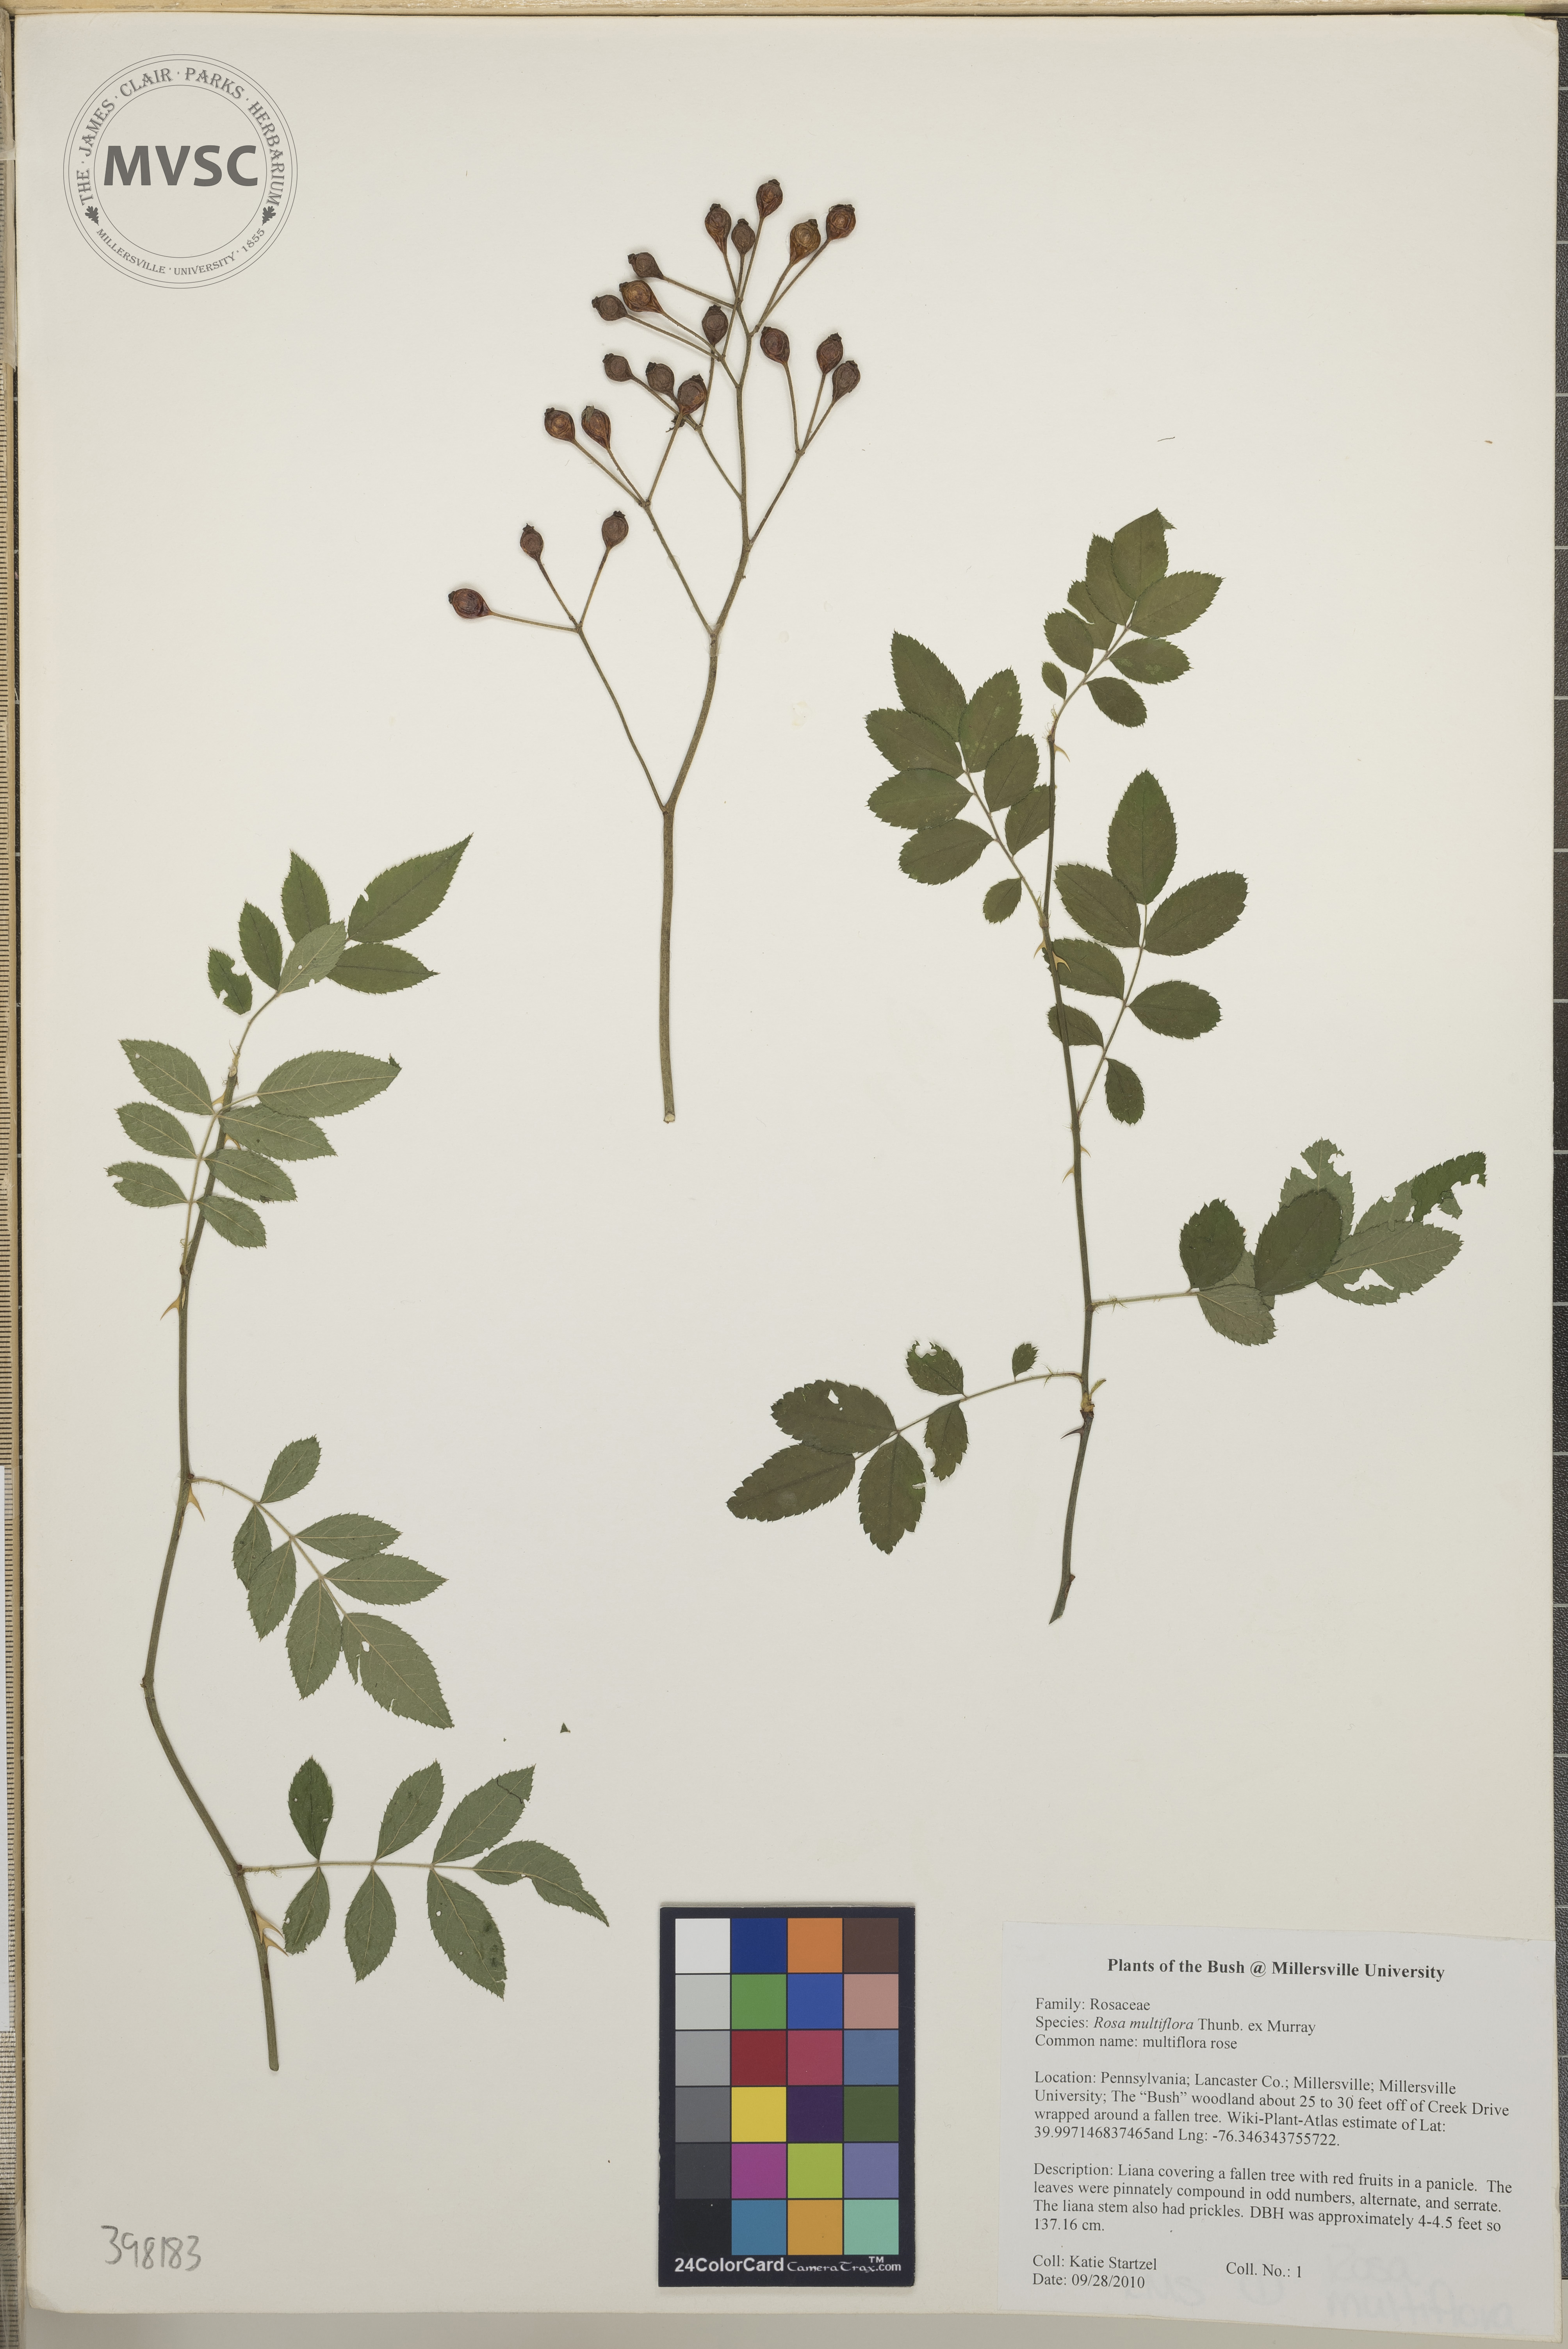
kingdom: Plantae
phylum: Tracheophyta
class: Magnoliopsida
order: Rosales
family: Rosaceae
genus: Rosa
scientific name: Rosa multiflora
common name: Multiflora rose
